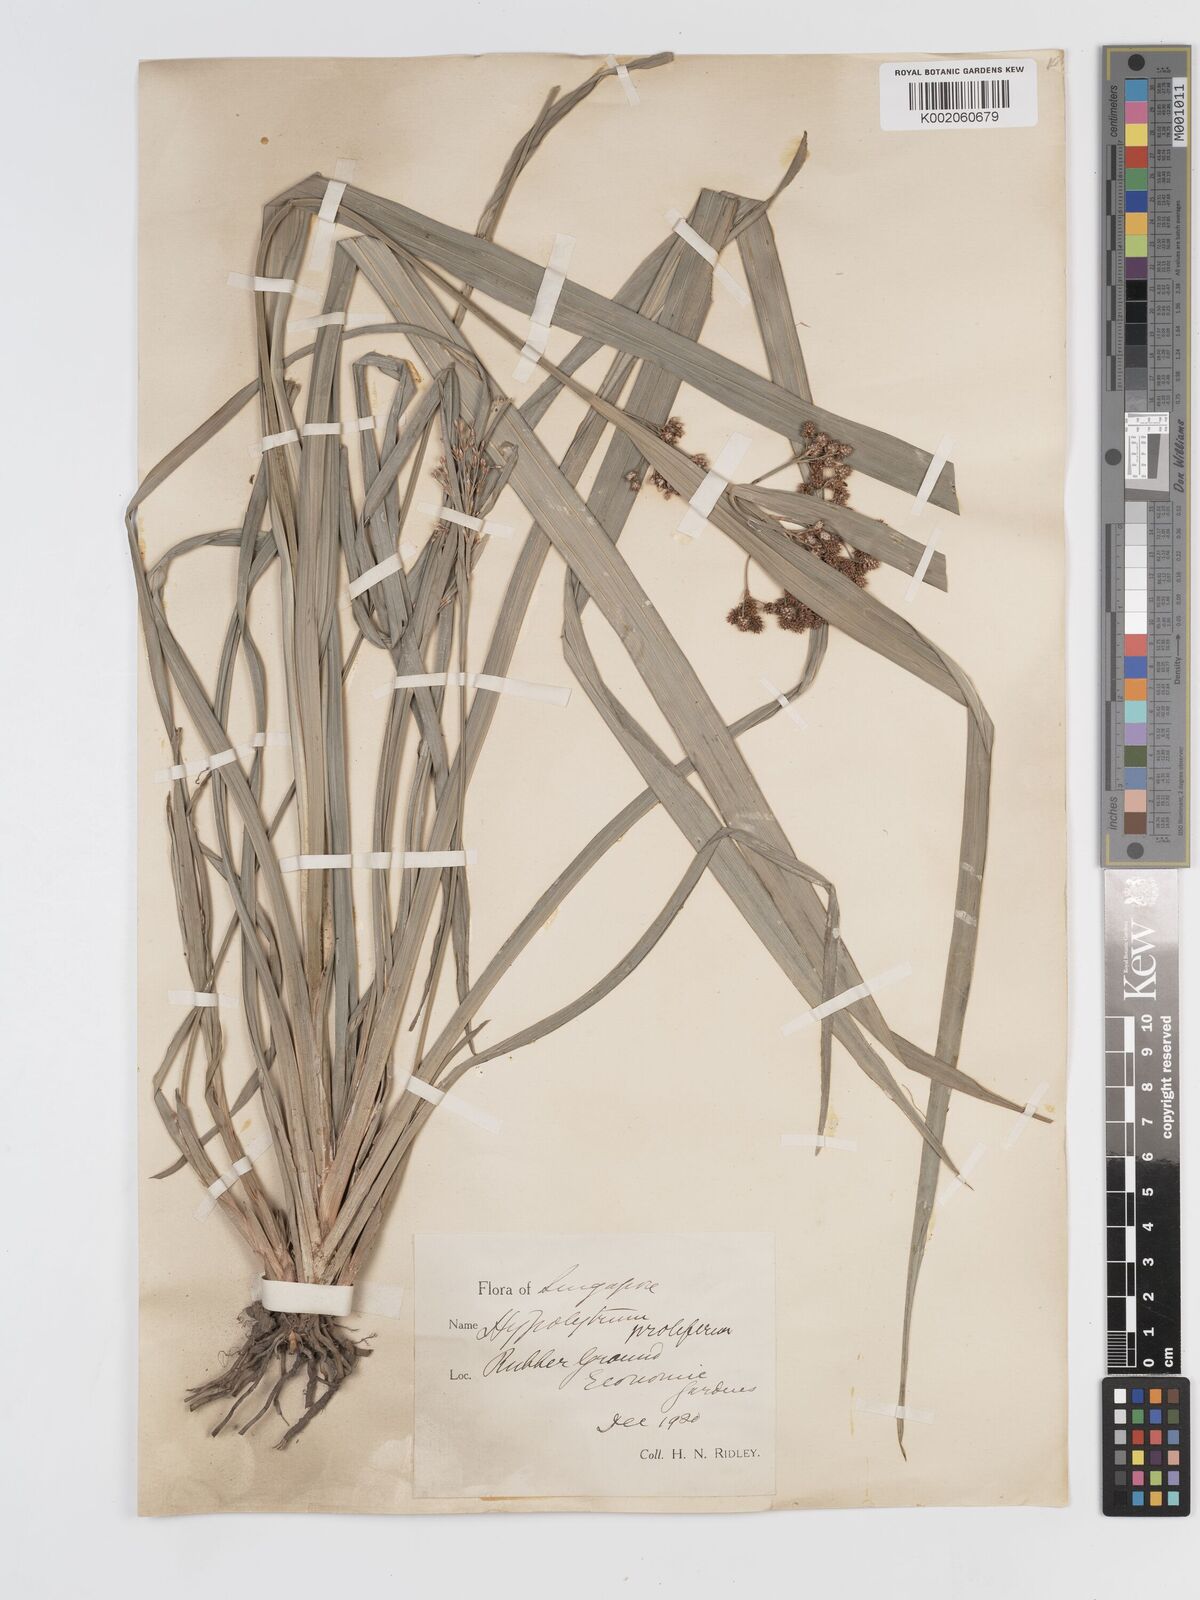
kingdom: Plantae
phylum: Tracheophyta
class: Liliopsida
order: Poales
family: Cyperaceae
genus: Hypolytrum
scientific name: Hypolytrum nemorum
